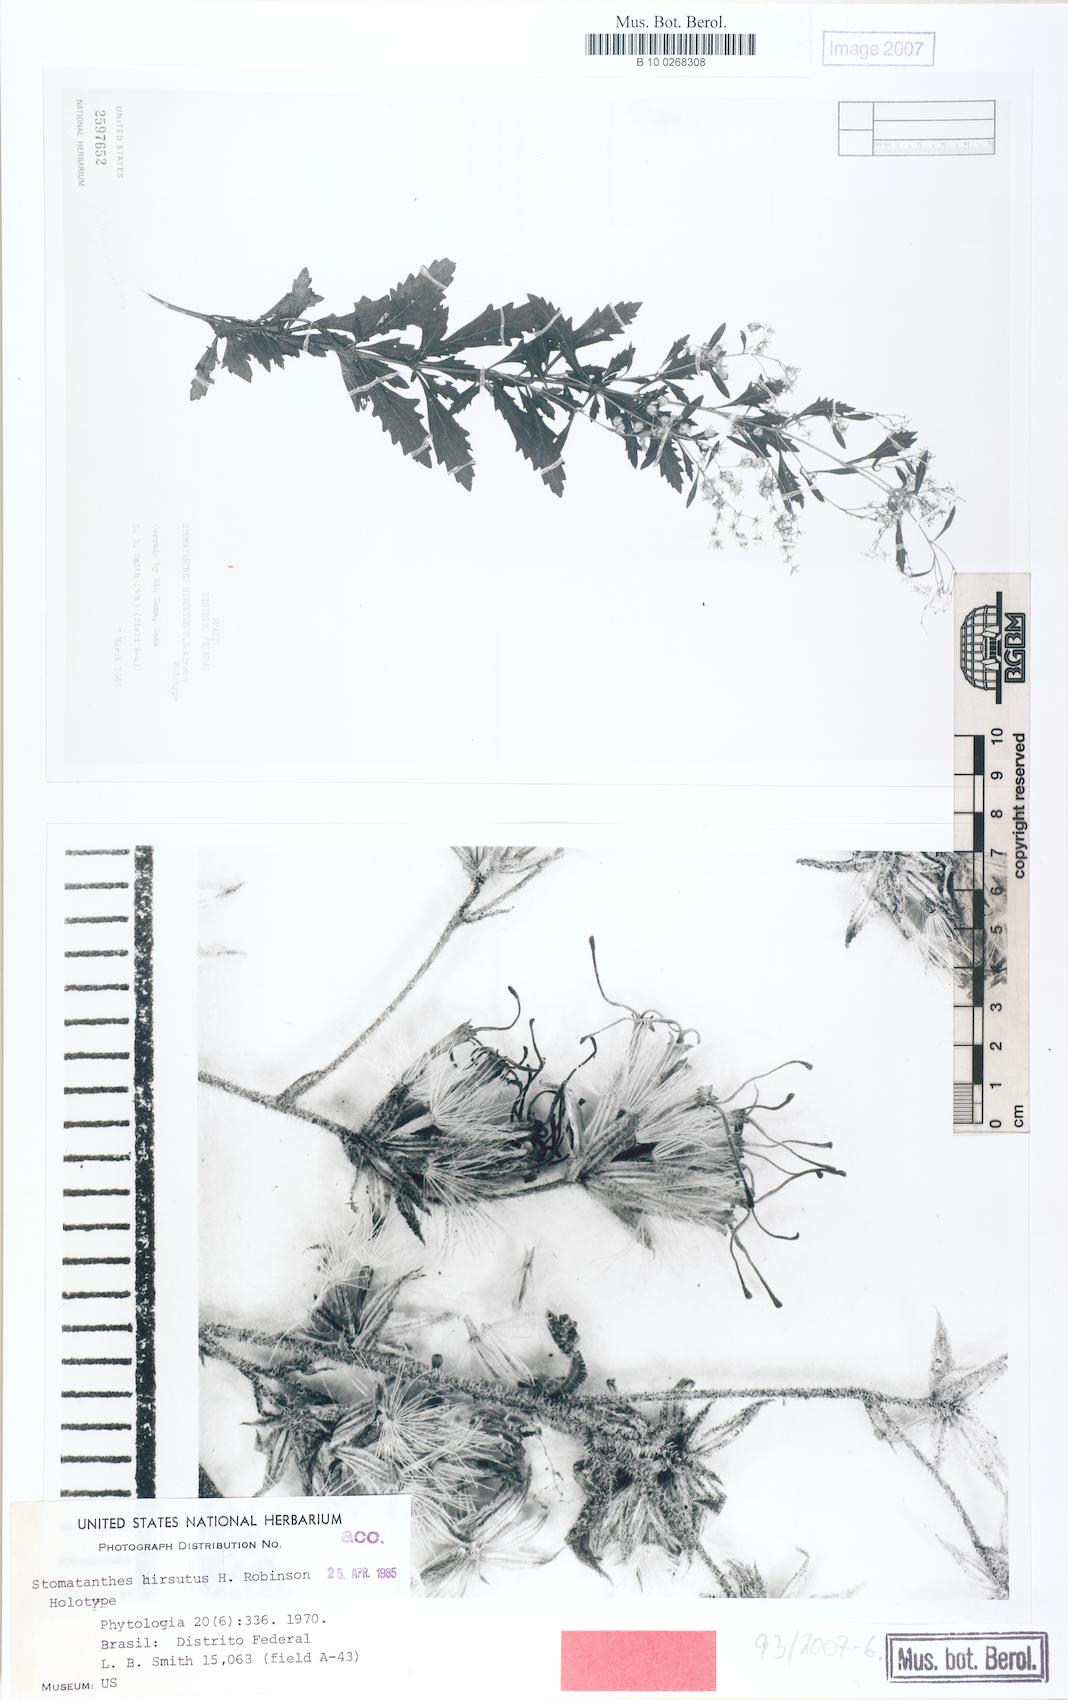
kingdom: Plantae
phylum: Tracheophyta
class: Magnoliopsida
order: Asterales
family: Asteraceae
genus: Stomatanthes
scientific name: Stomatanthes hirsutus
